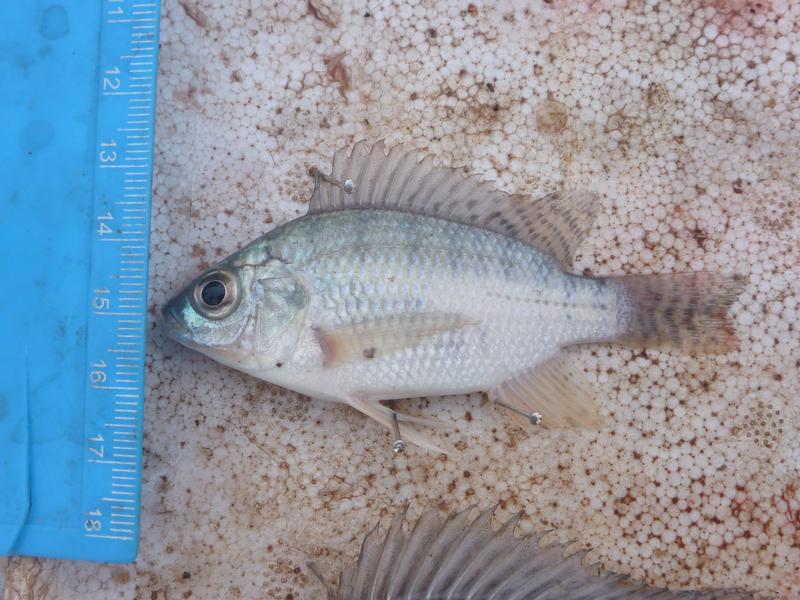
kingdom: Animalia
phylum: Chordata
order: Perciformes
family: Cichlidae
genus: Oreochromis
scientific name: Oreochromis niloticus
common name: Nile tilapia
